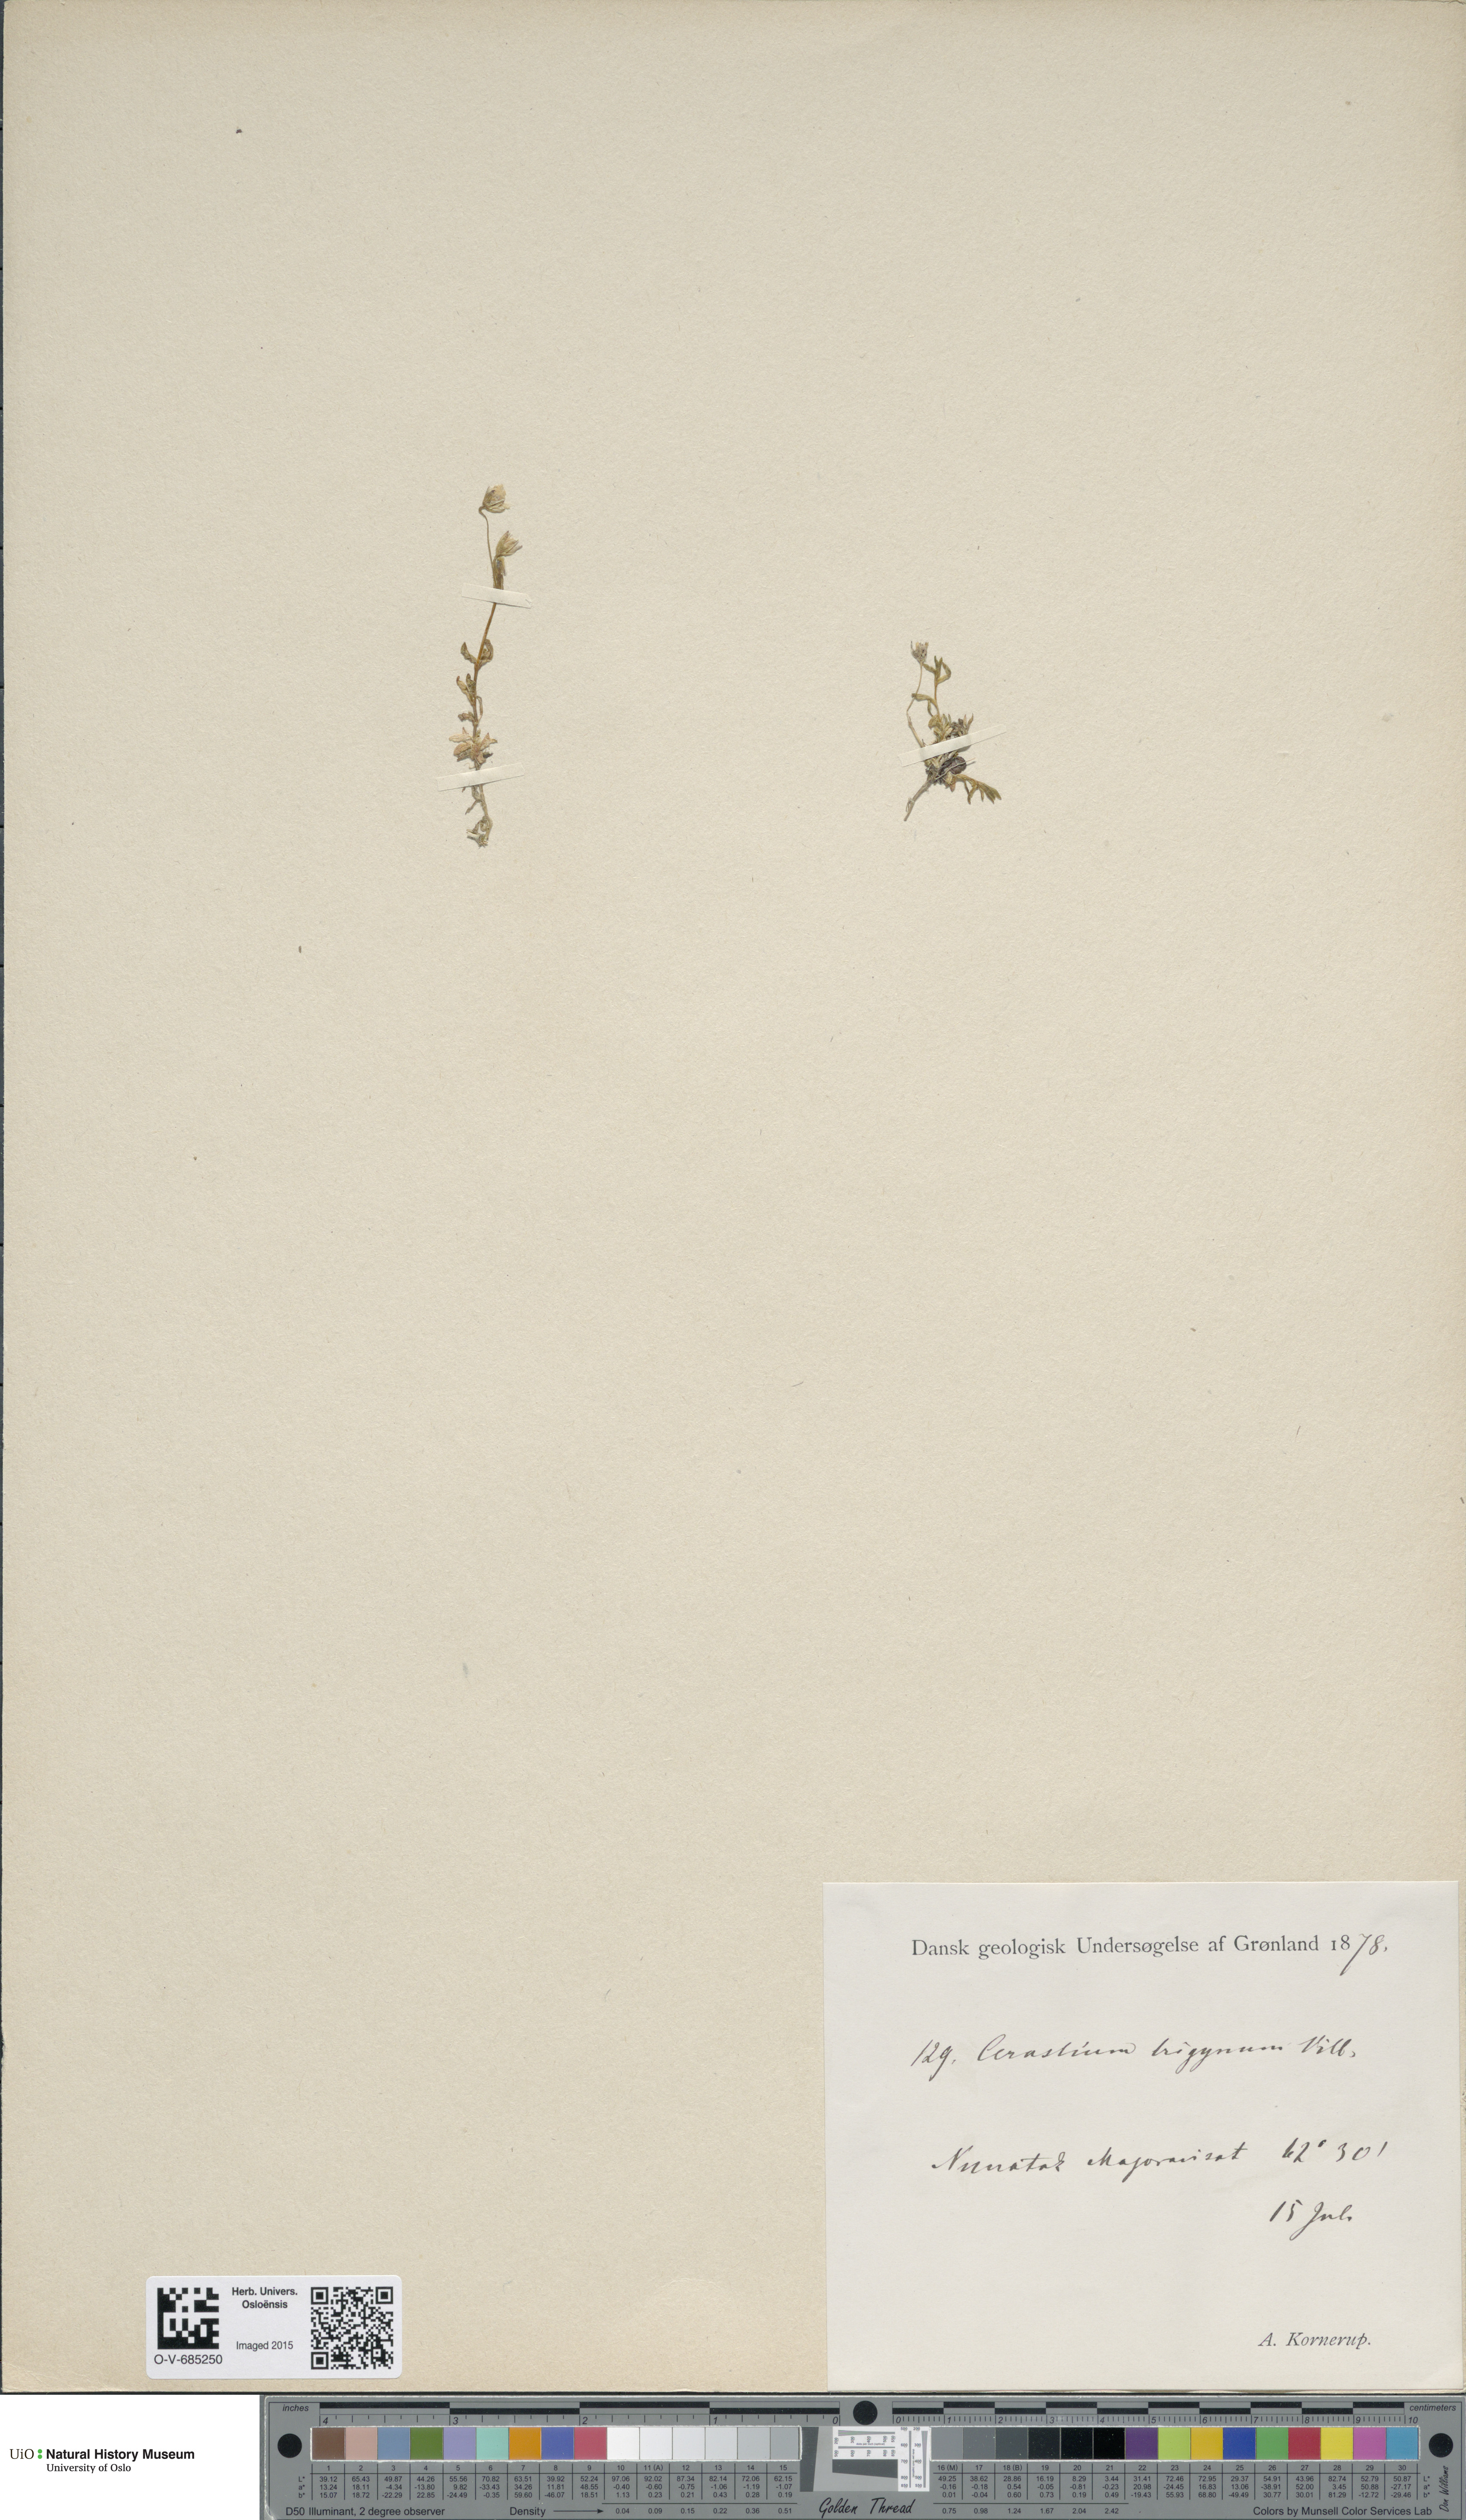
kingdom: Plantae
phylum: Tracheophyta
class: Magnoliopsida
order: Caryophyllales
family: Caryophyllaceae
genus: Dichodon
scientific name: Dichodon cerastoides
